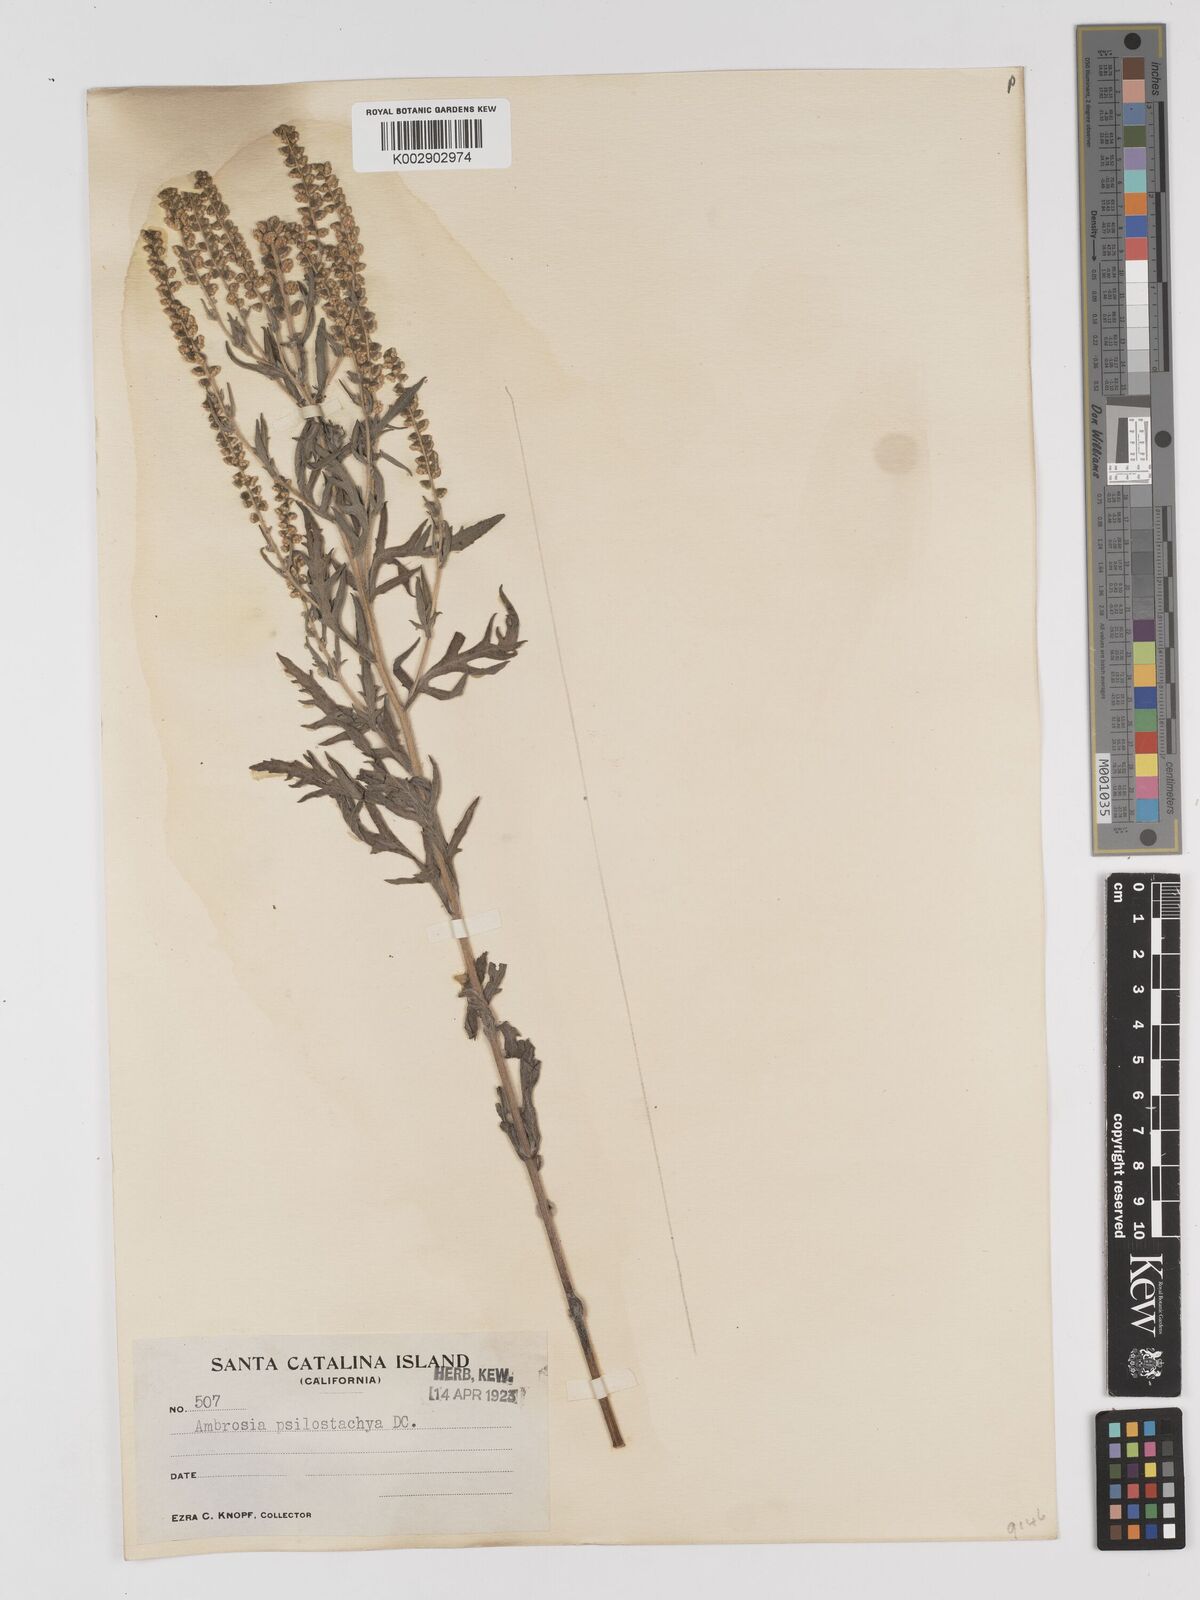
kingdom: Plantae
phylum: Tracheophyta
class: Magnoliopsida
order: Asterales
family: Asteraceae
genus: Ambrosia
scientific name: Ambrosia psilostachya
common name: Perennial ragweed
